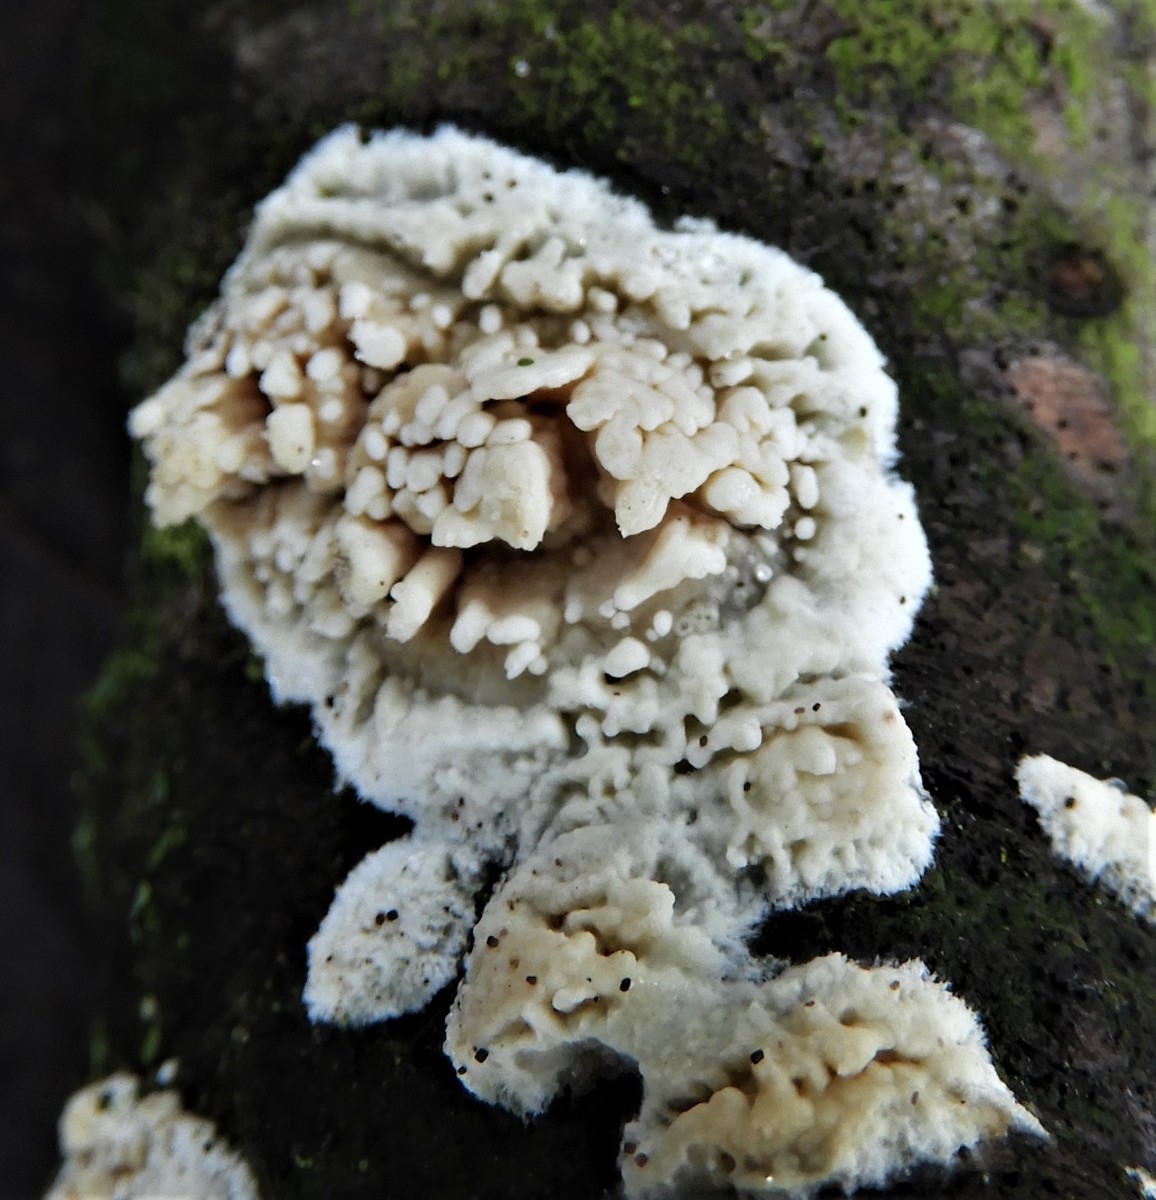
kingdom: Fungi
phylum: Basidiomycota
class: Agaricomycetes
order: Hymenochaetales
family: Schizoporaceae
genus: Xylodon
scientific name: Xylodon radula
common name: grovtandet kalkskind
